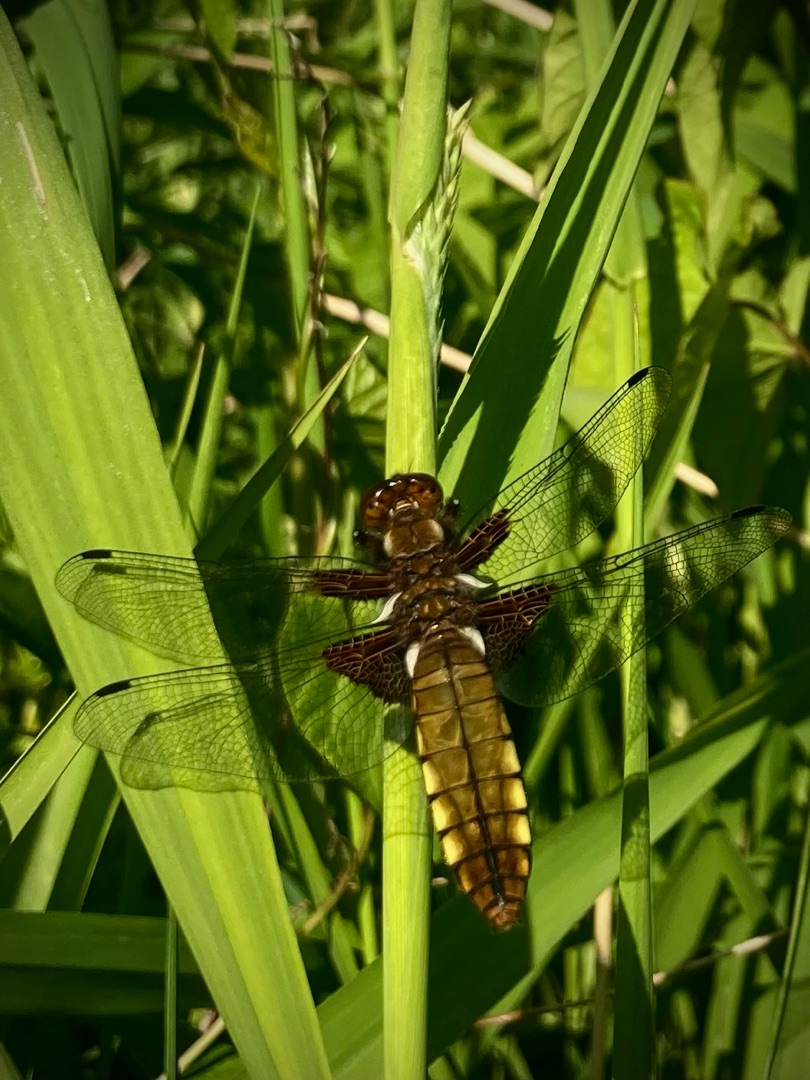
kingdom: Animalia
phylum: Arthropoda
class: Insecta
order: Odonata
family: Libellulidae
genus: Libellula
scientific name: Libellula depressa
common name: Blå libel
